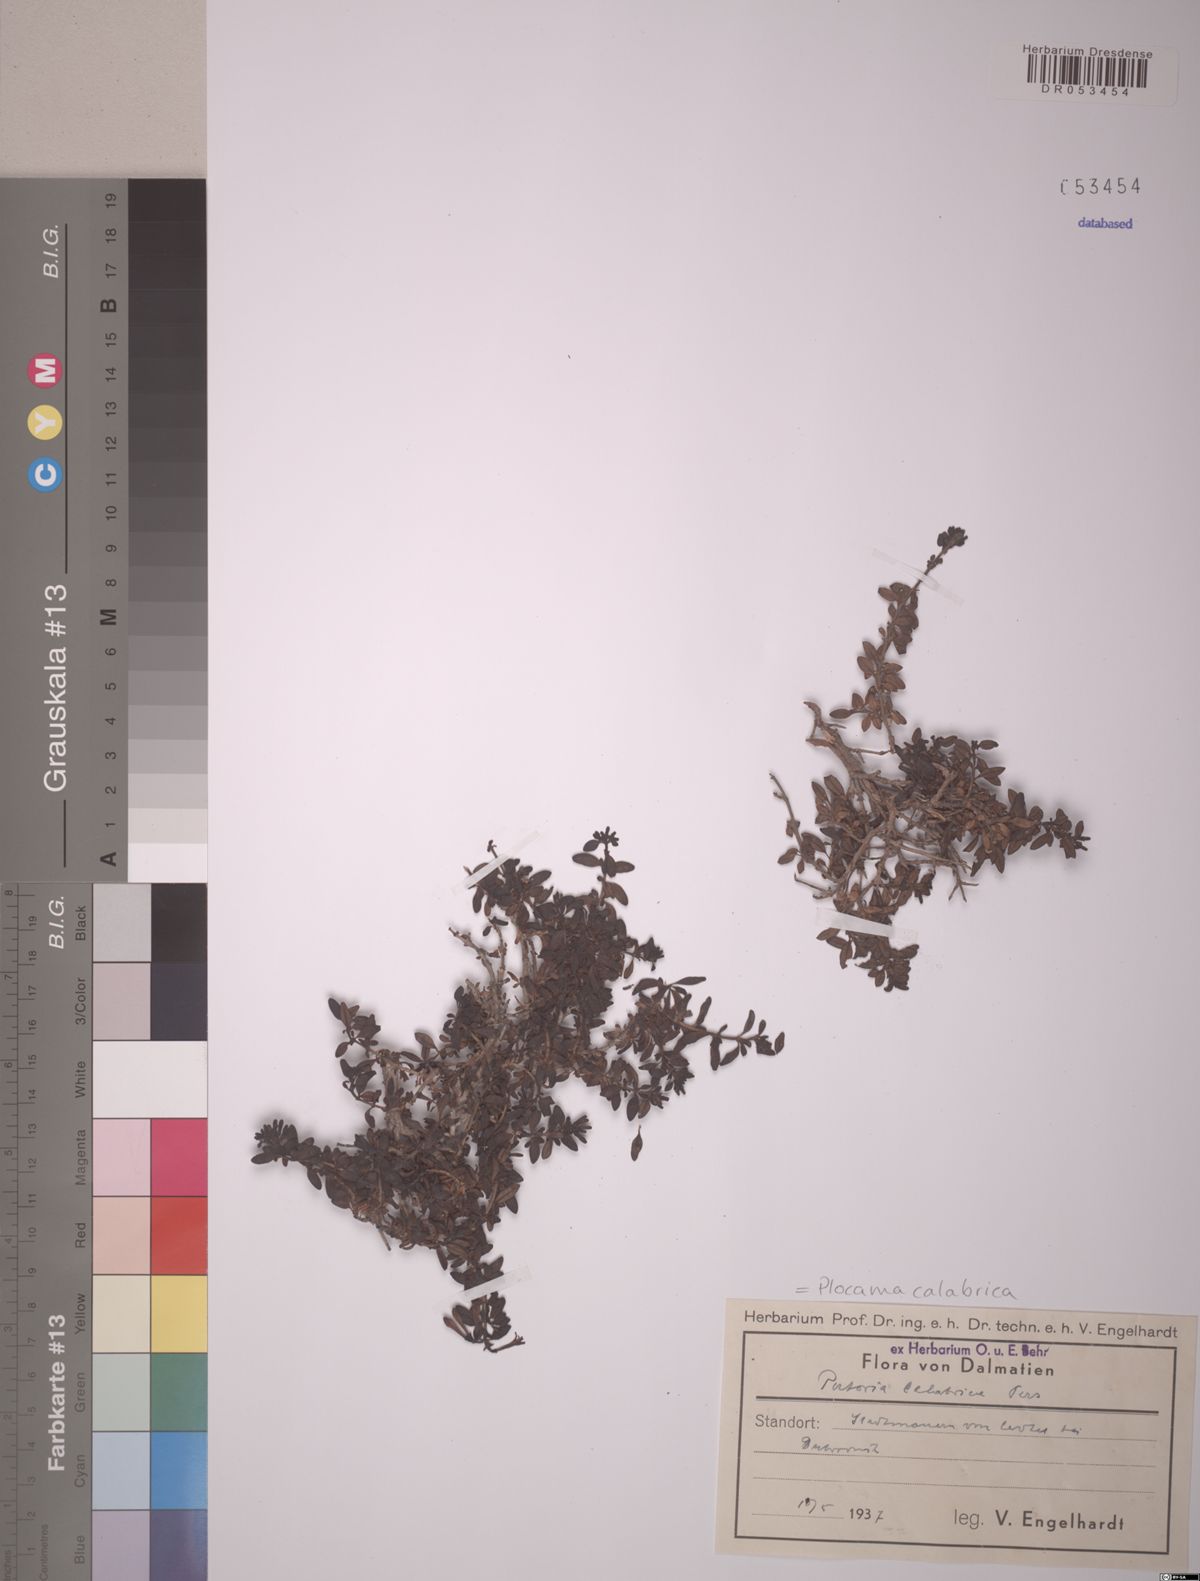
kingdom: Plantae
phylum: Tracheophyta
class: Magnoliopsida
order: Gentianales
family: Rubiaceae
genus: Plocama
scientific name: Plocama calabrica
